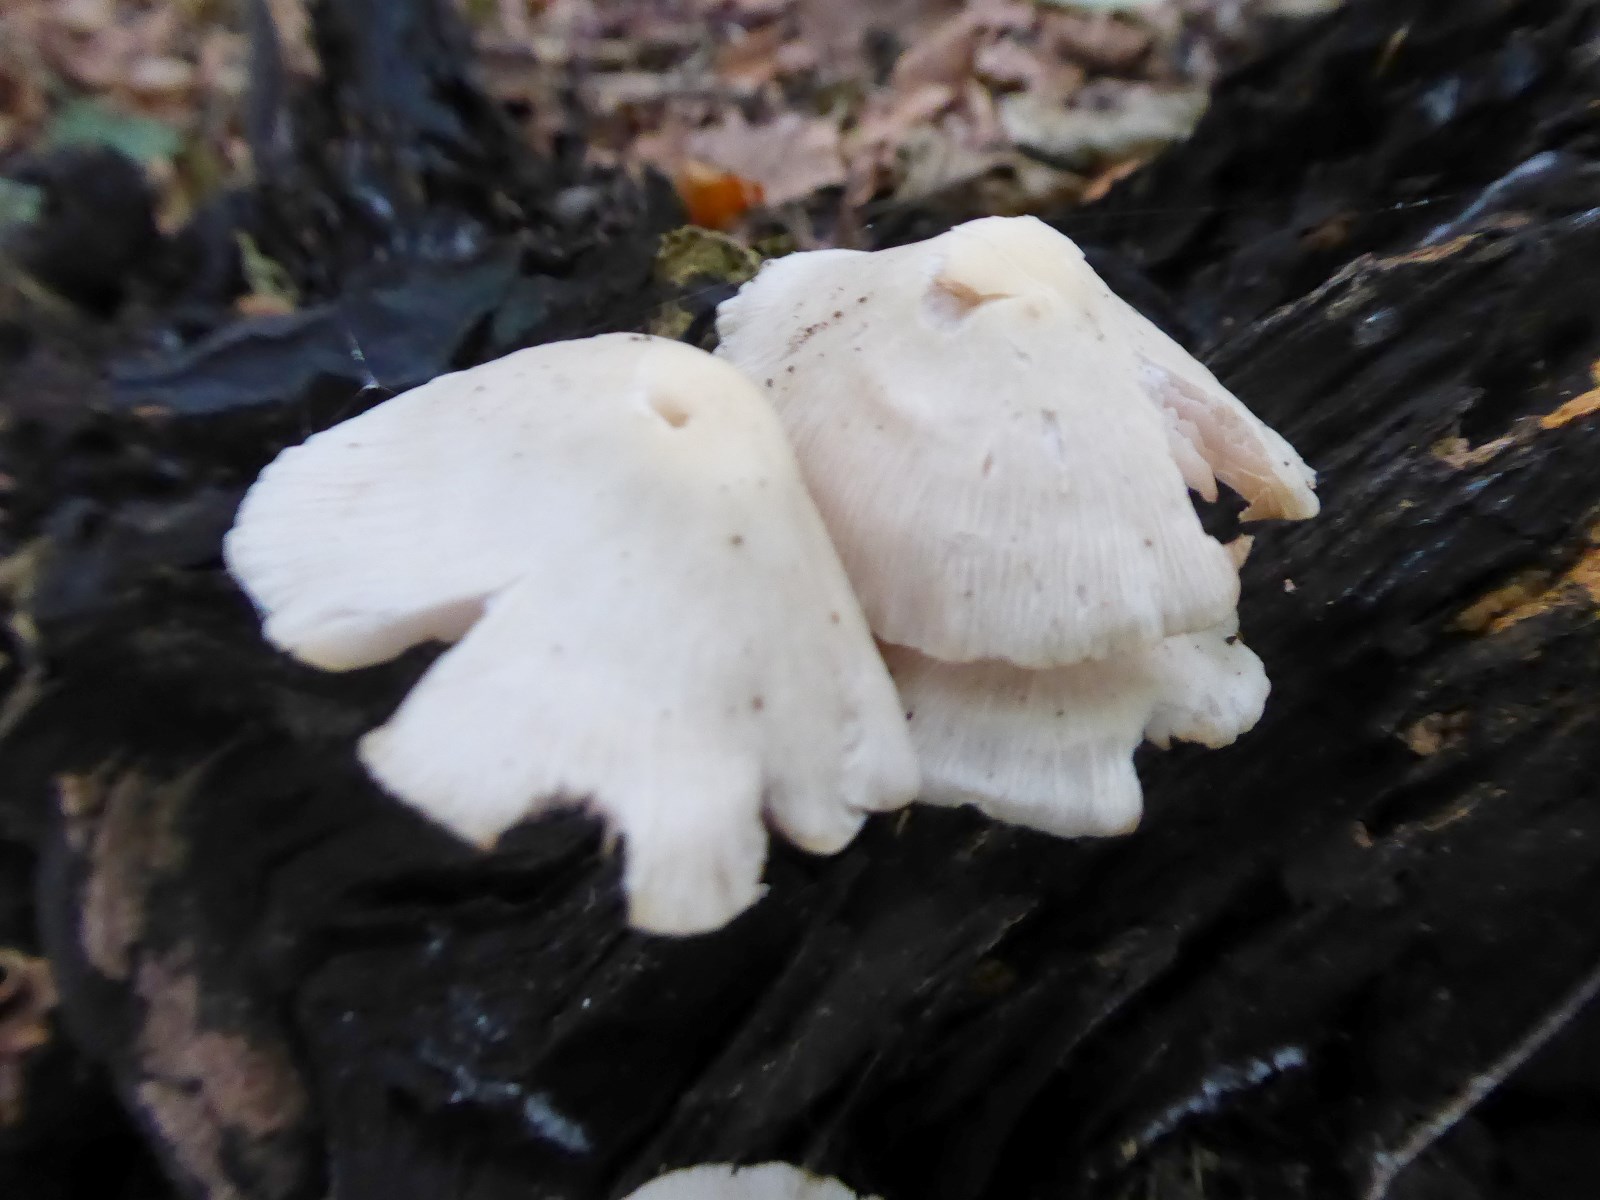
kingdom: Fungi
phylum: Basidiomycota
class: Agaricomycetes
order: Agaricales
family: Mycenaceae
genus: Mycena
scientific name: Mycena galericulata
